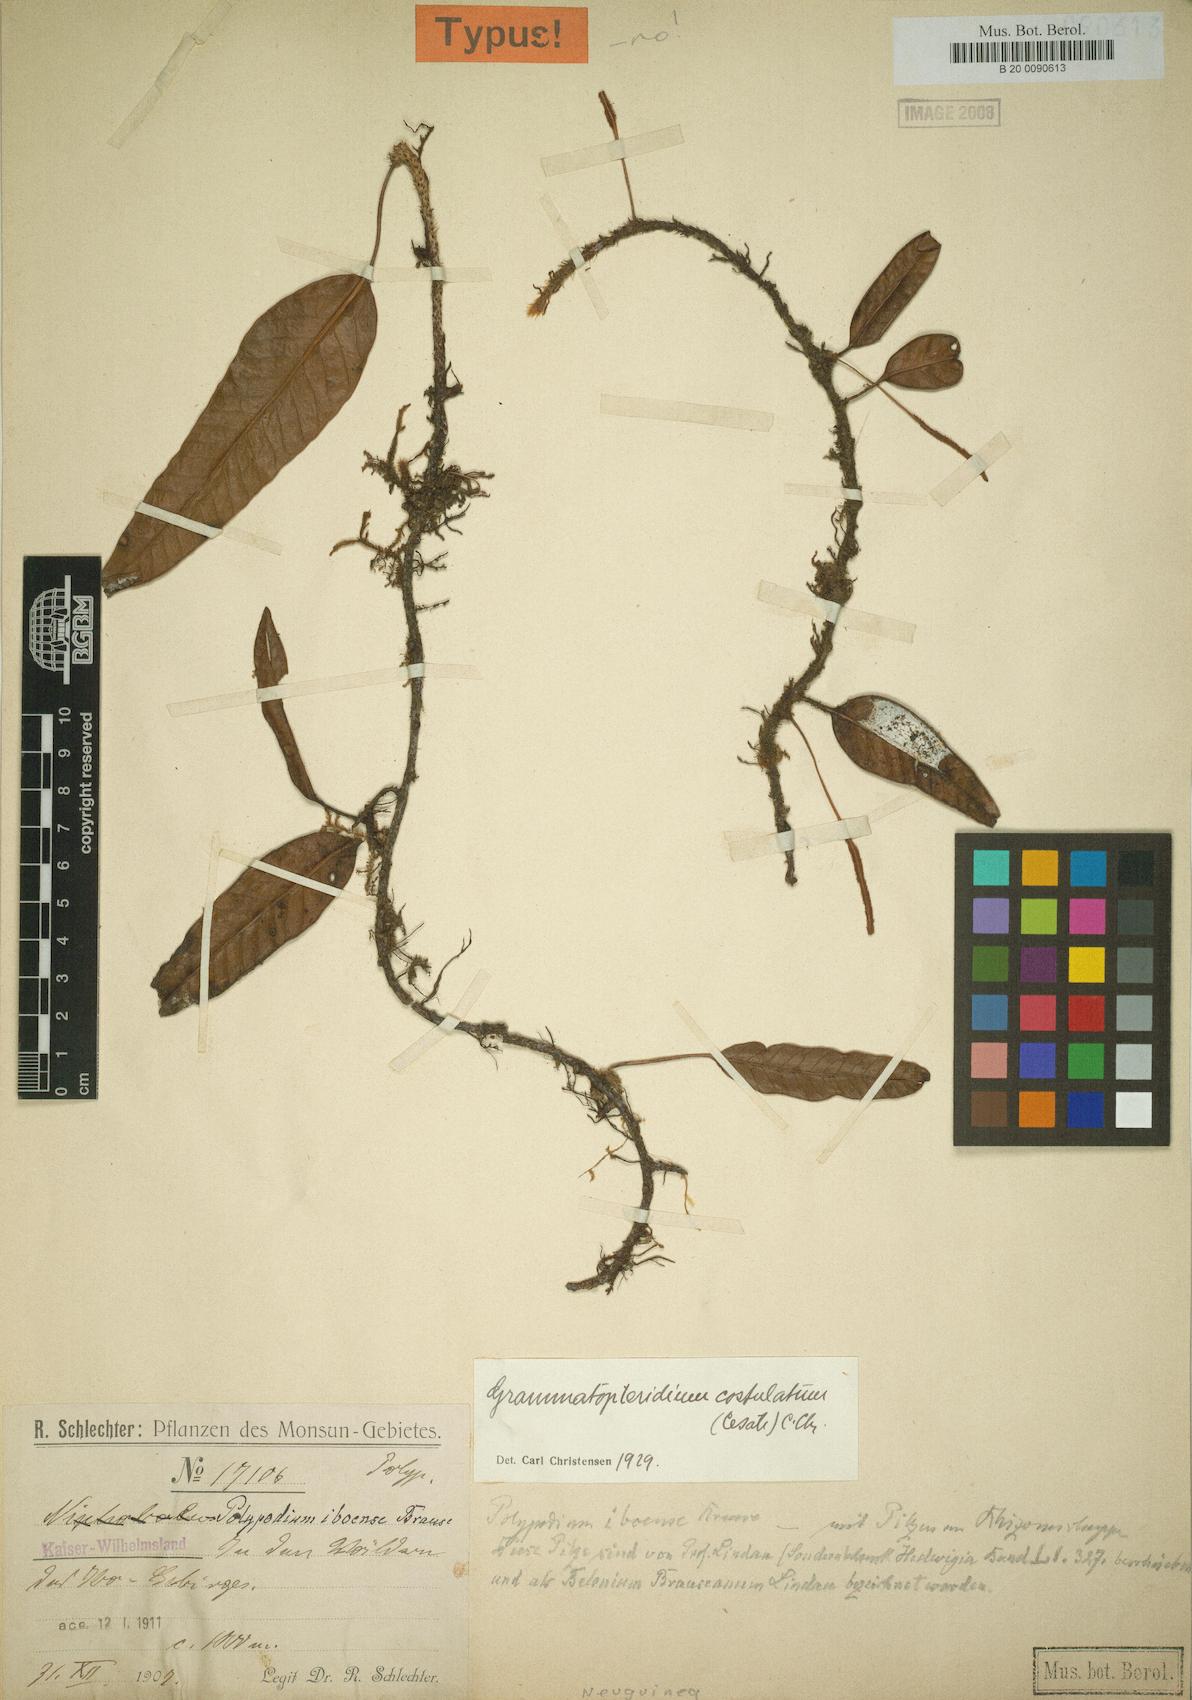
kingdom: Plantae
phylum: Tracheophyta
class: Polypodiopsida
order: Polypodiales
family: Polypodiaceae
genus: Selliguea
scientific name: Selliguea costulata
